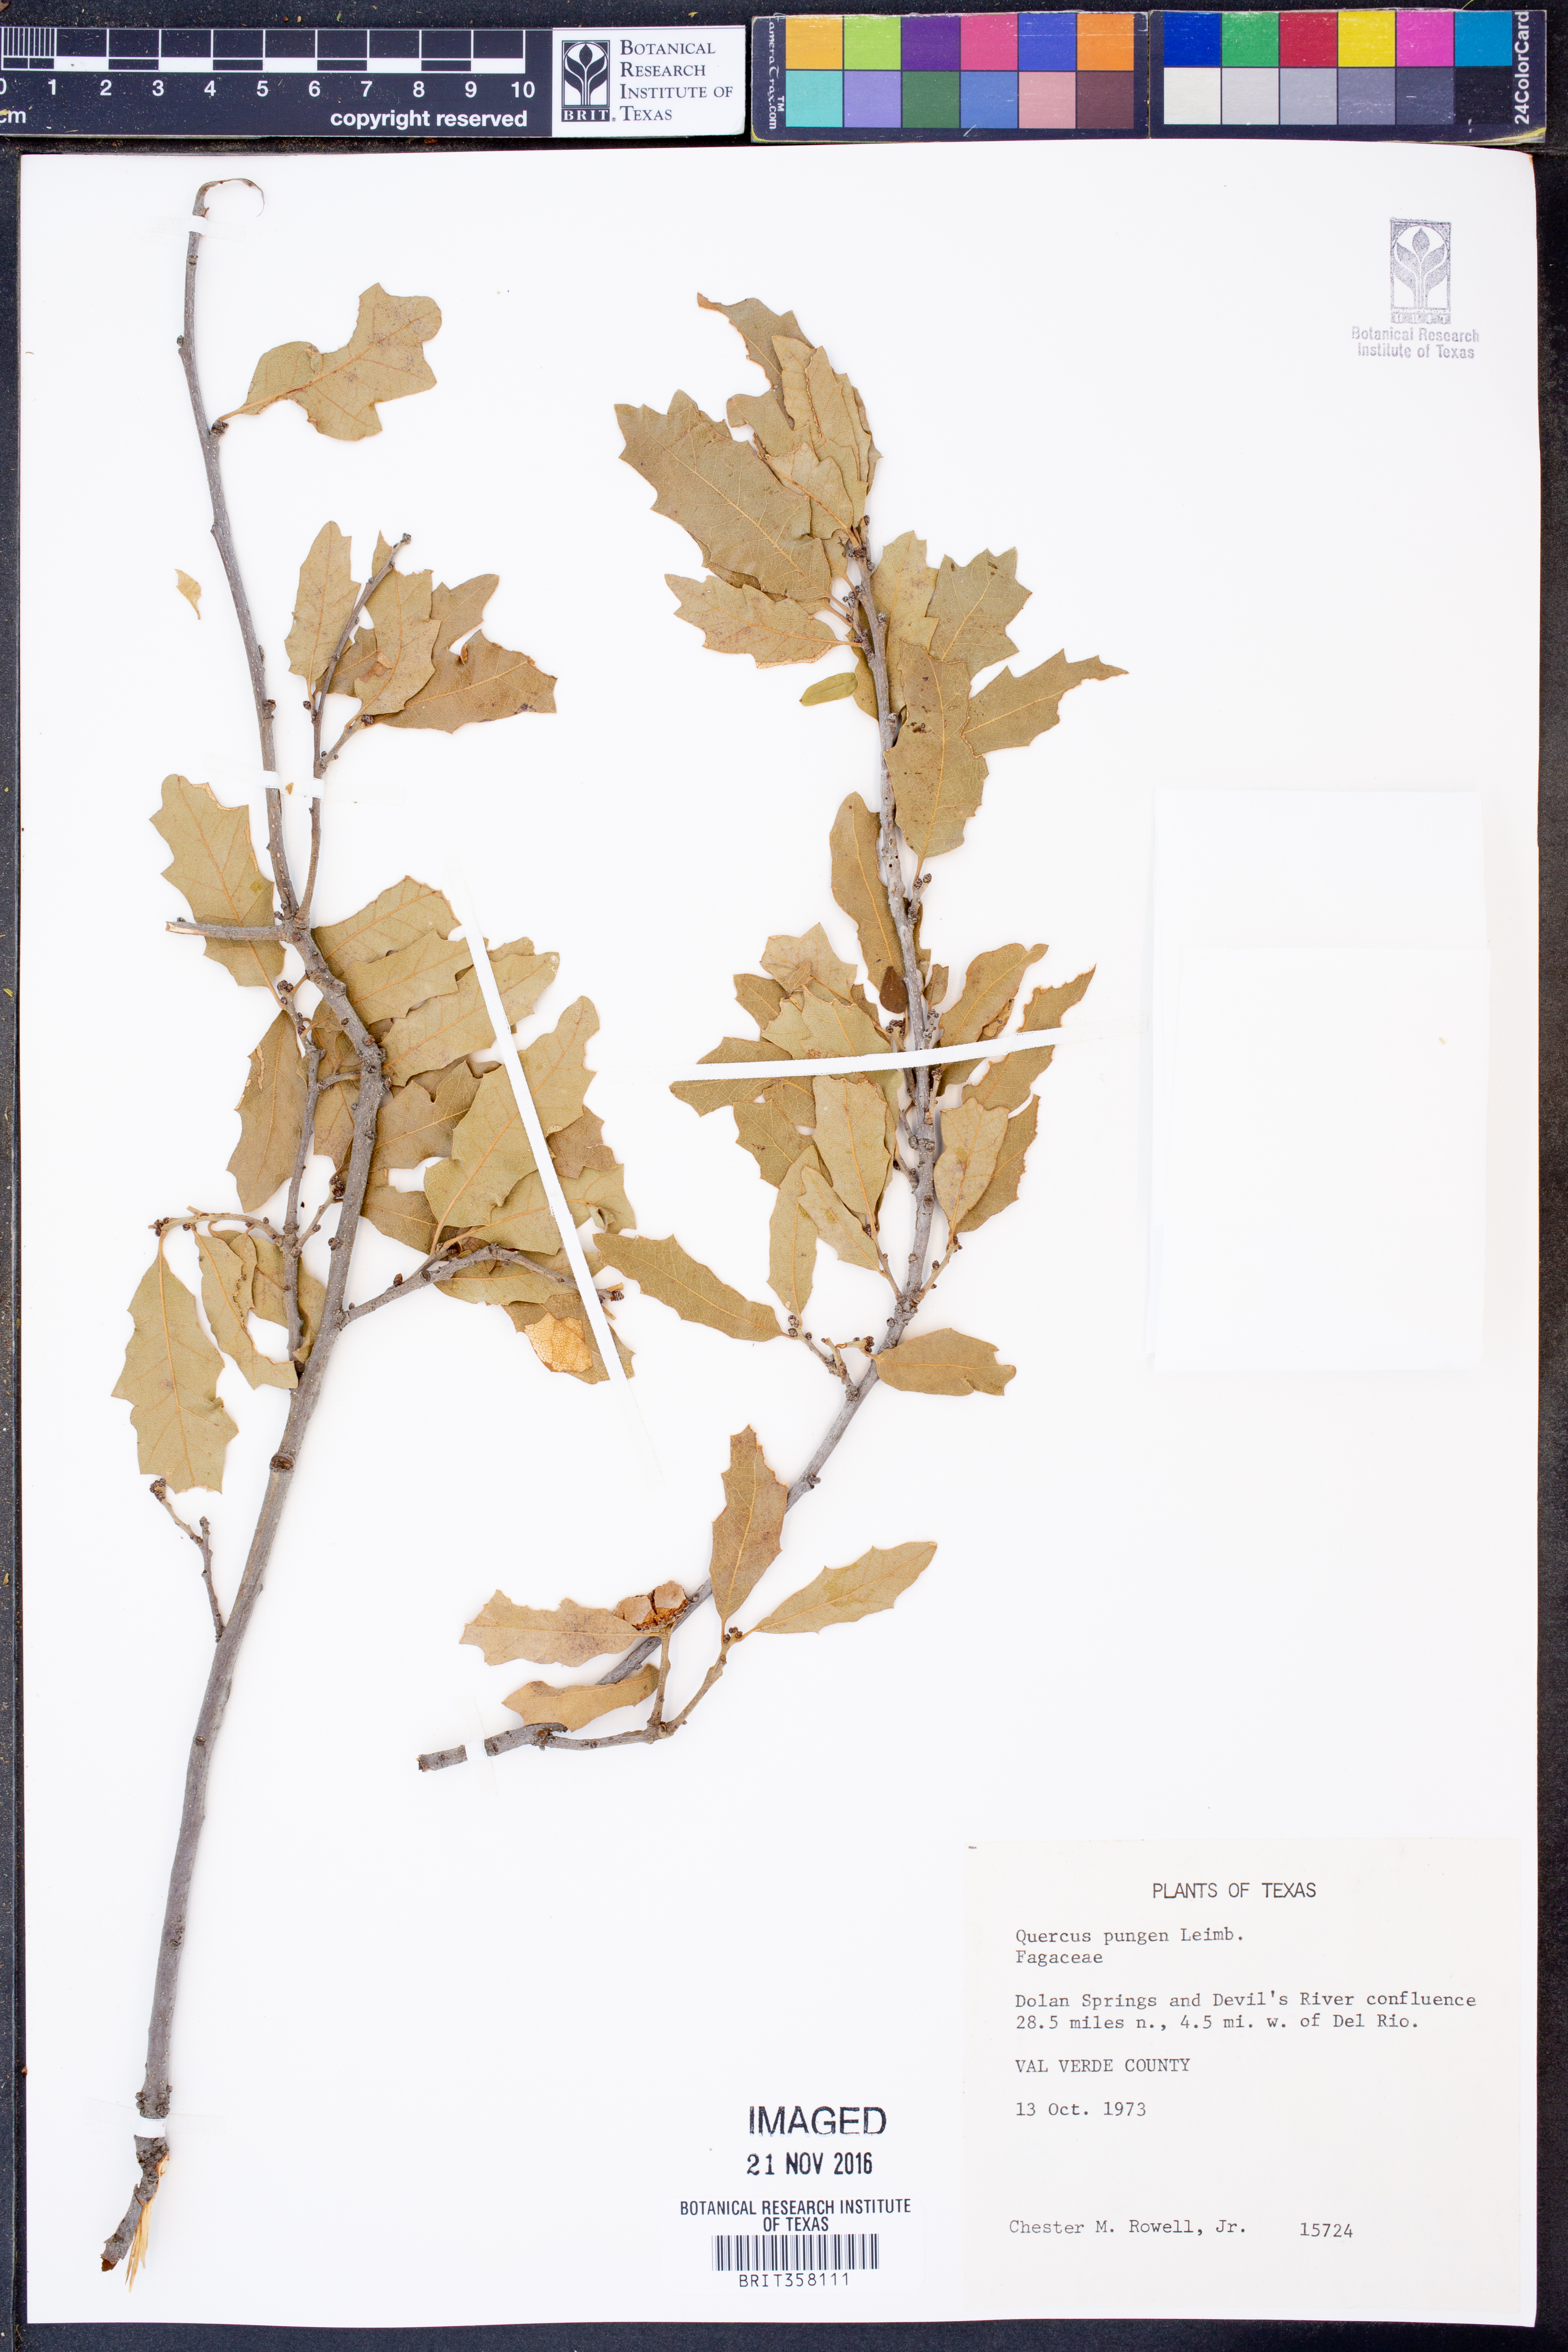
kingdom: Plantae
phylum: Tracheophyta
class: Magnoliopsida
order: Fagales
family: Fagaceae
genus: Quercus
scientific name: Quercus pungens
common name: Pungent oak
